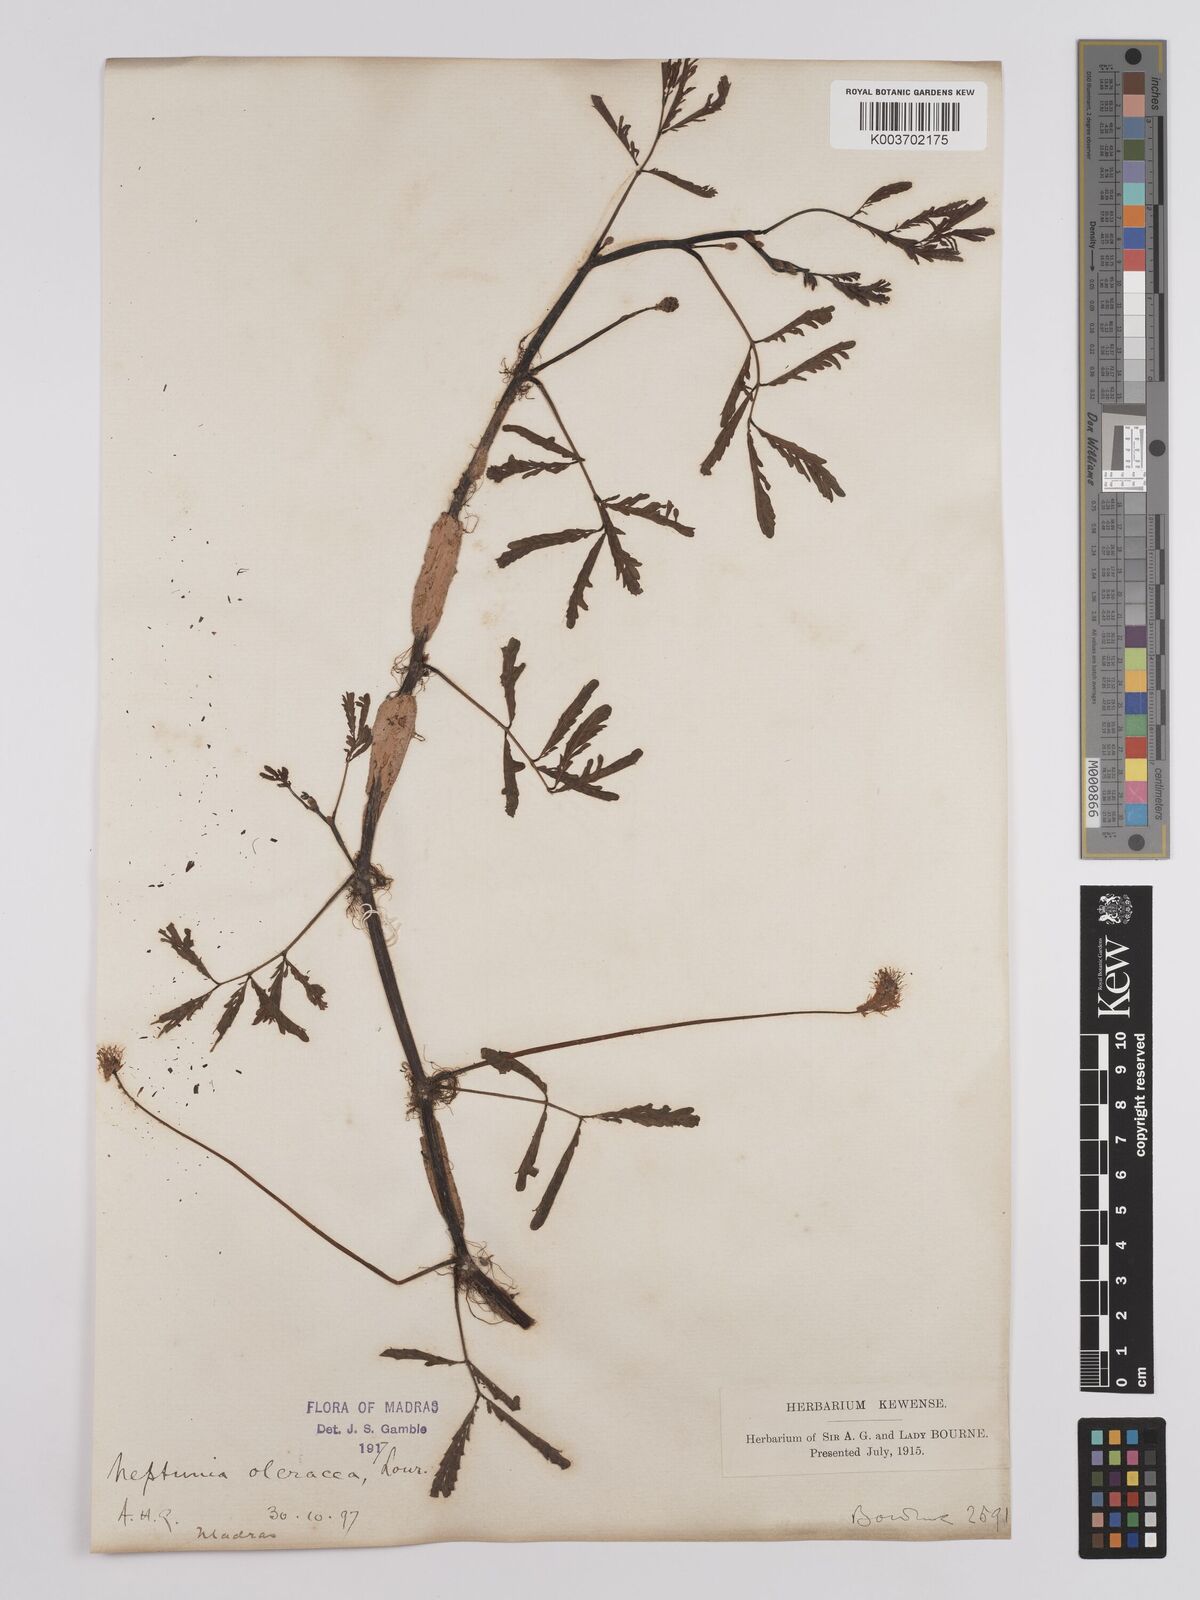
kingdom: Plantae
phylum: Tracheophyta
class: Magnoliopsida
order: Fabales
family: Fabaceae
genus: Neptunia
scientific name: Neptunia prostrata
